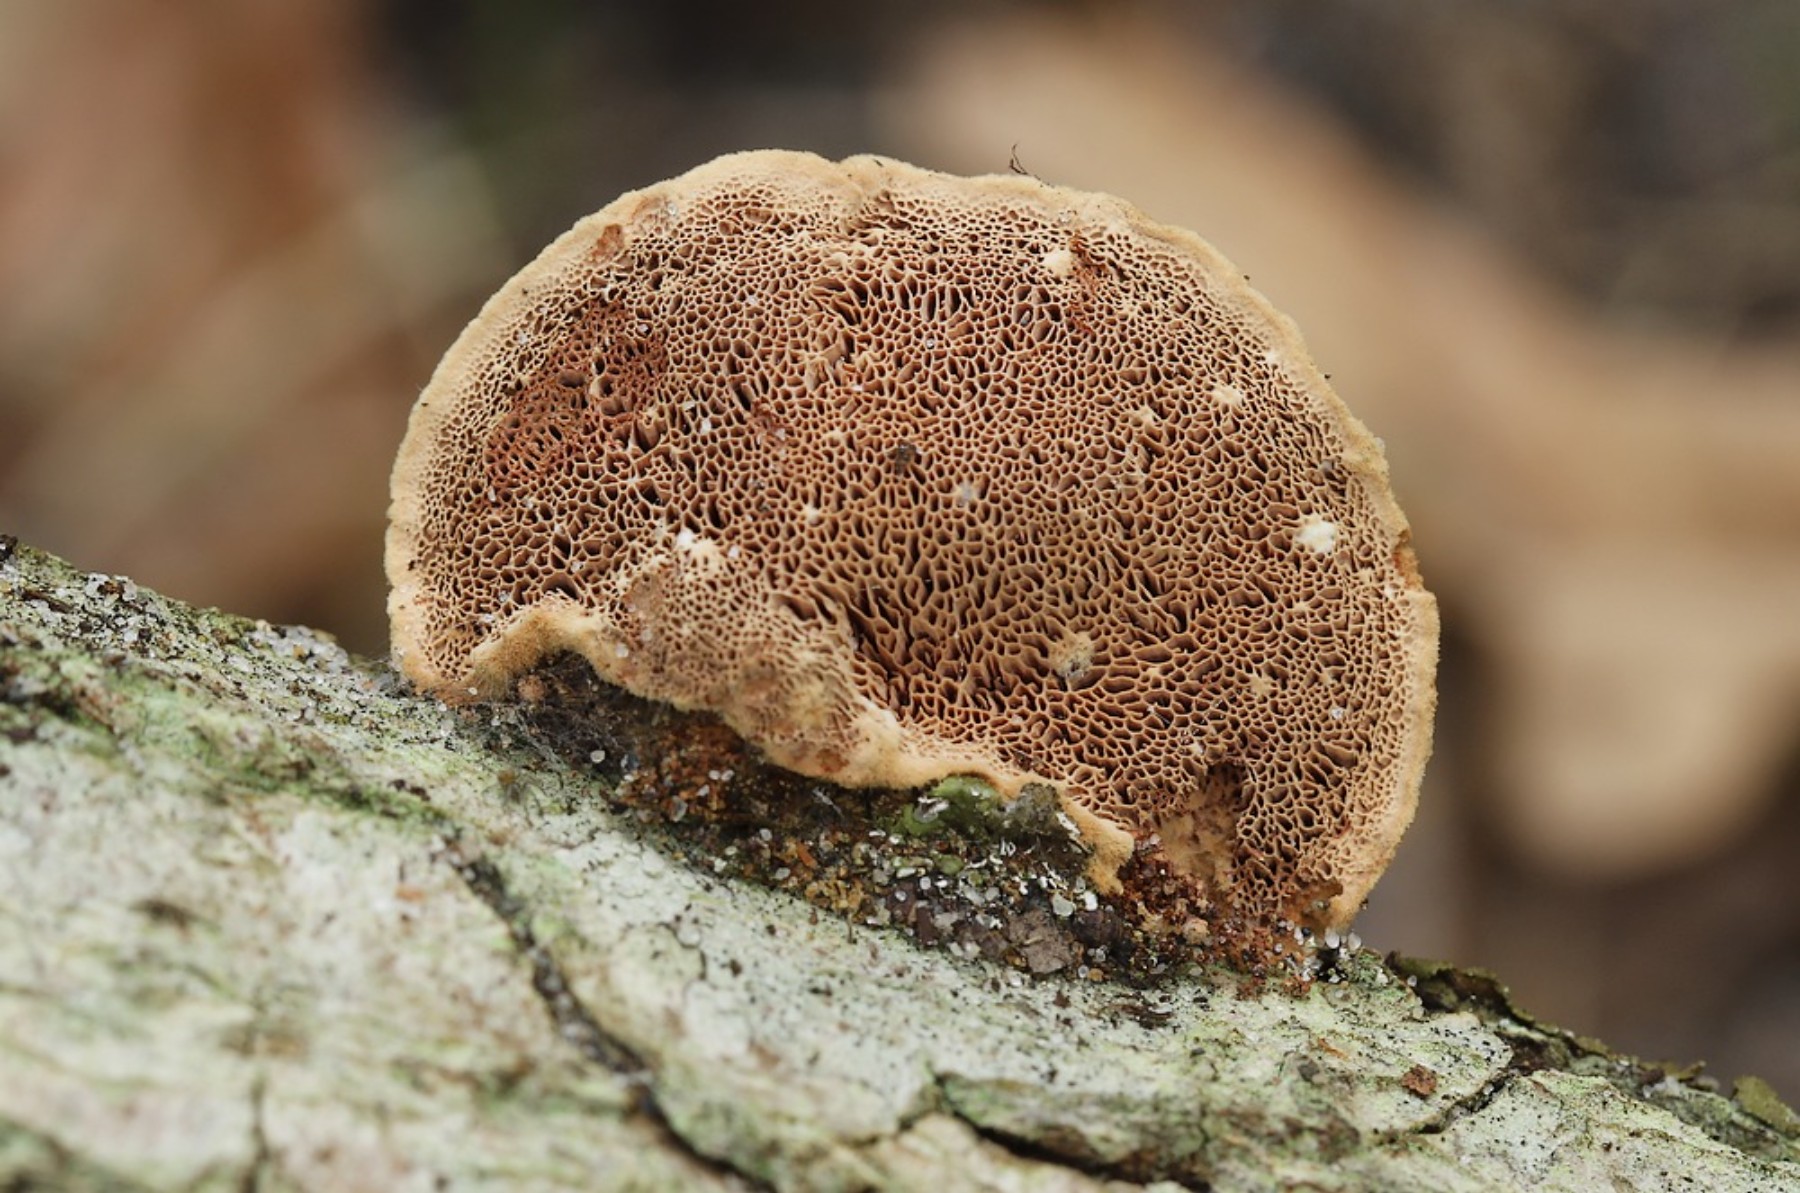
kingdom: Fungi
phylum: Basidiomycota
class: Agaricomycetes
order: Polyporales
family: Phanerochaetaceae
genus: Hapalopilus
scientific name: Hapalopilus rutilans
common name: rødlig okkerporesvamp
